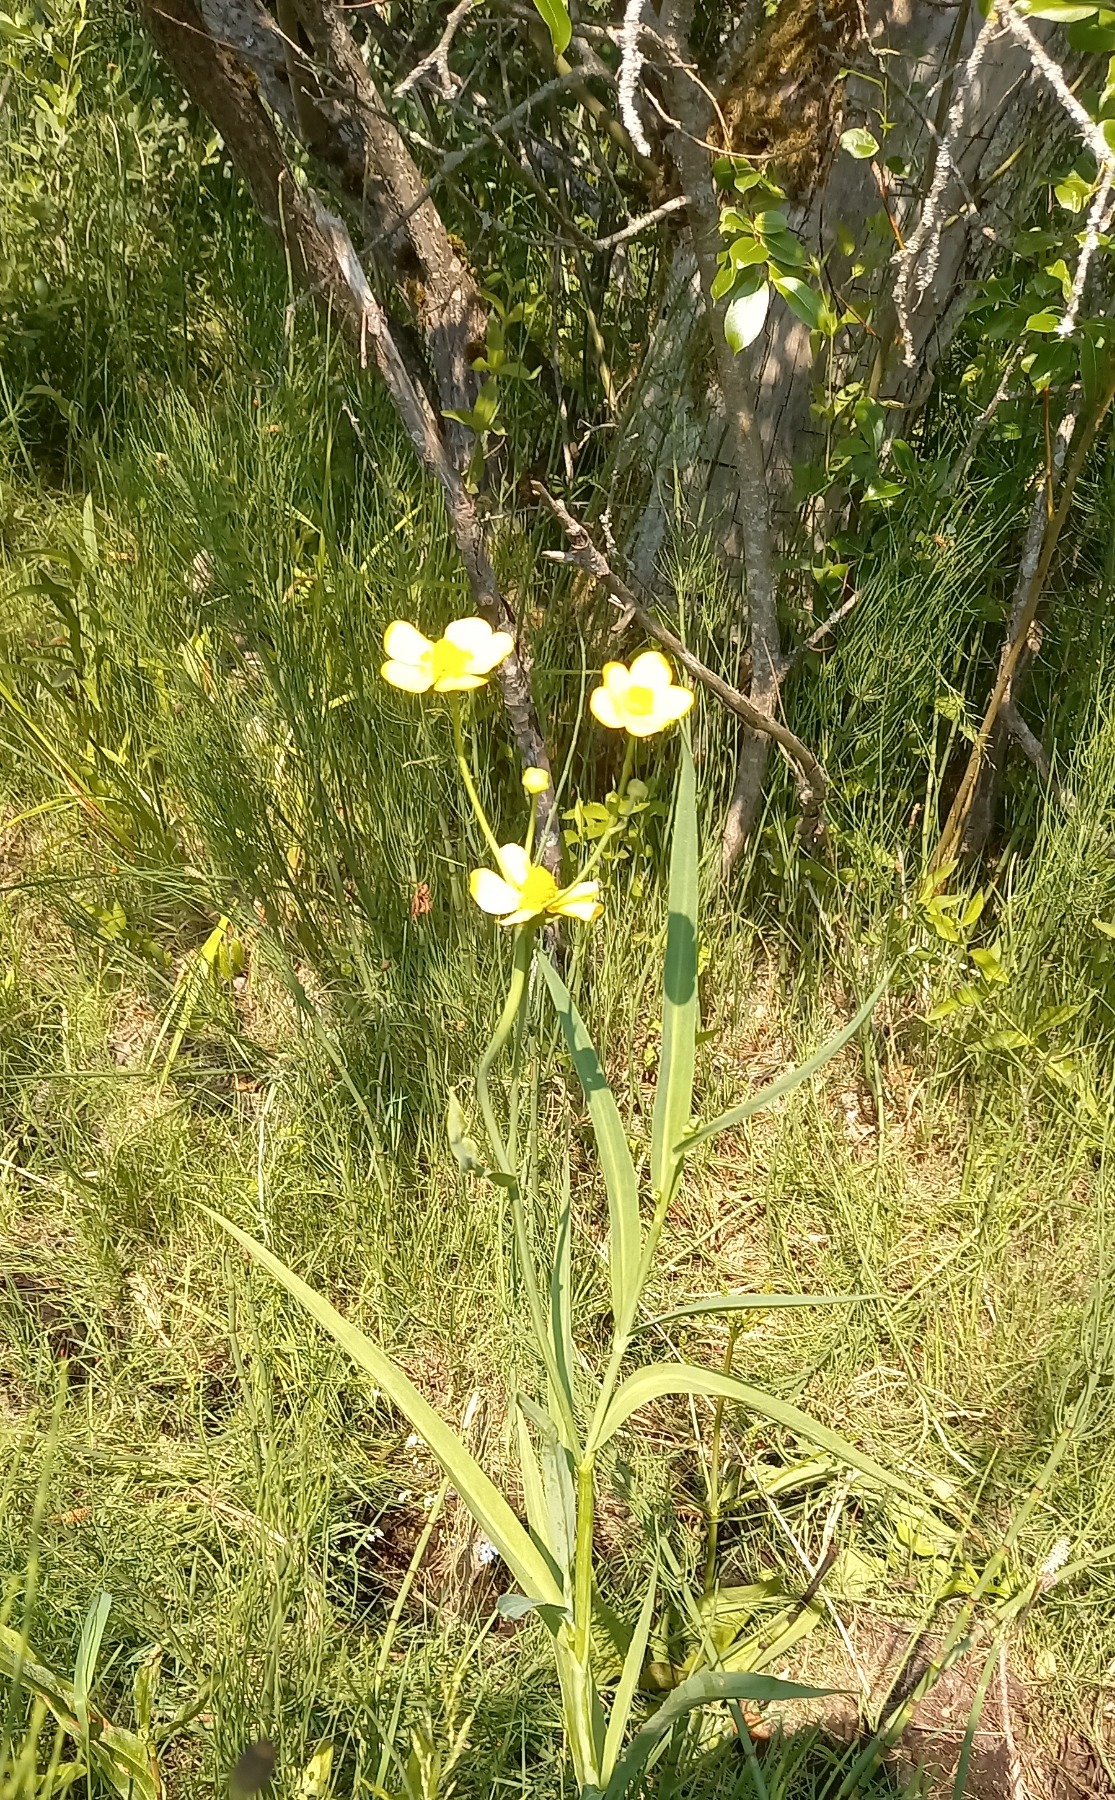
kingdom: Plantae
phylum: Tracheophyta
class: Magnoliopsida
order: Ranunculales
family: Ranunculaceae
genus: Ranunculus
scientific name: Ranunculus lingua
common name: Langbladet ranunkel
